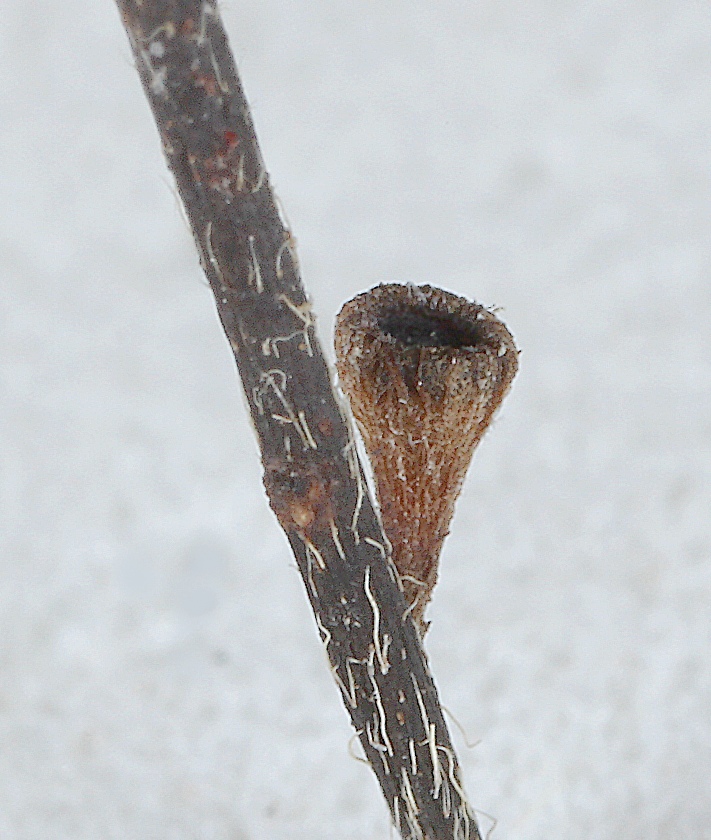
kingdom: Fungi
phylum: Ascomycota
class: Leotiomycetes
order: Helotiales
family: Rutstroemiaceae
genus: Lanzia
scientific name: Lanzia echinophila
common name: kastanie-brunskive
